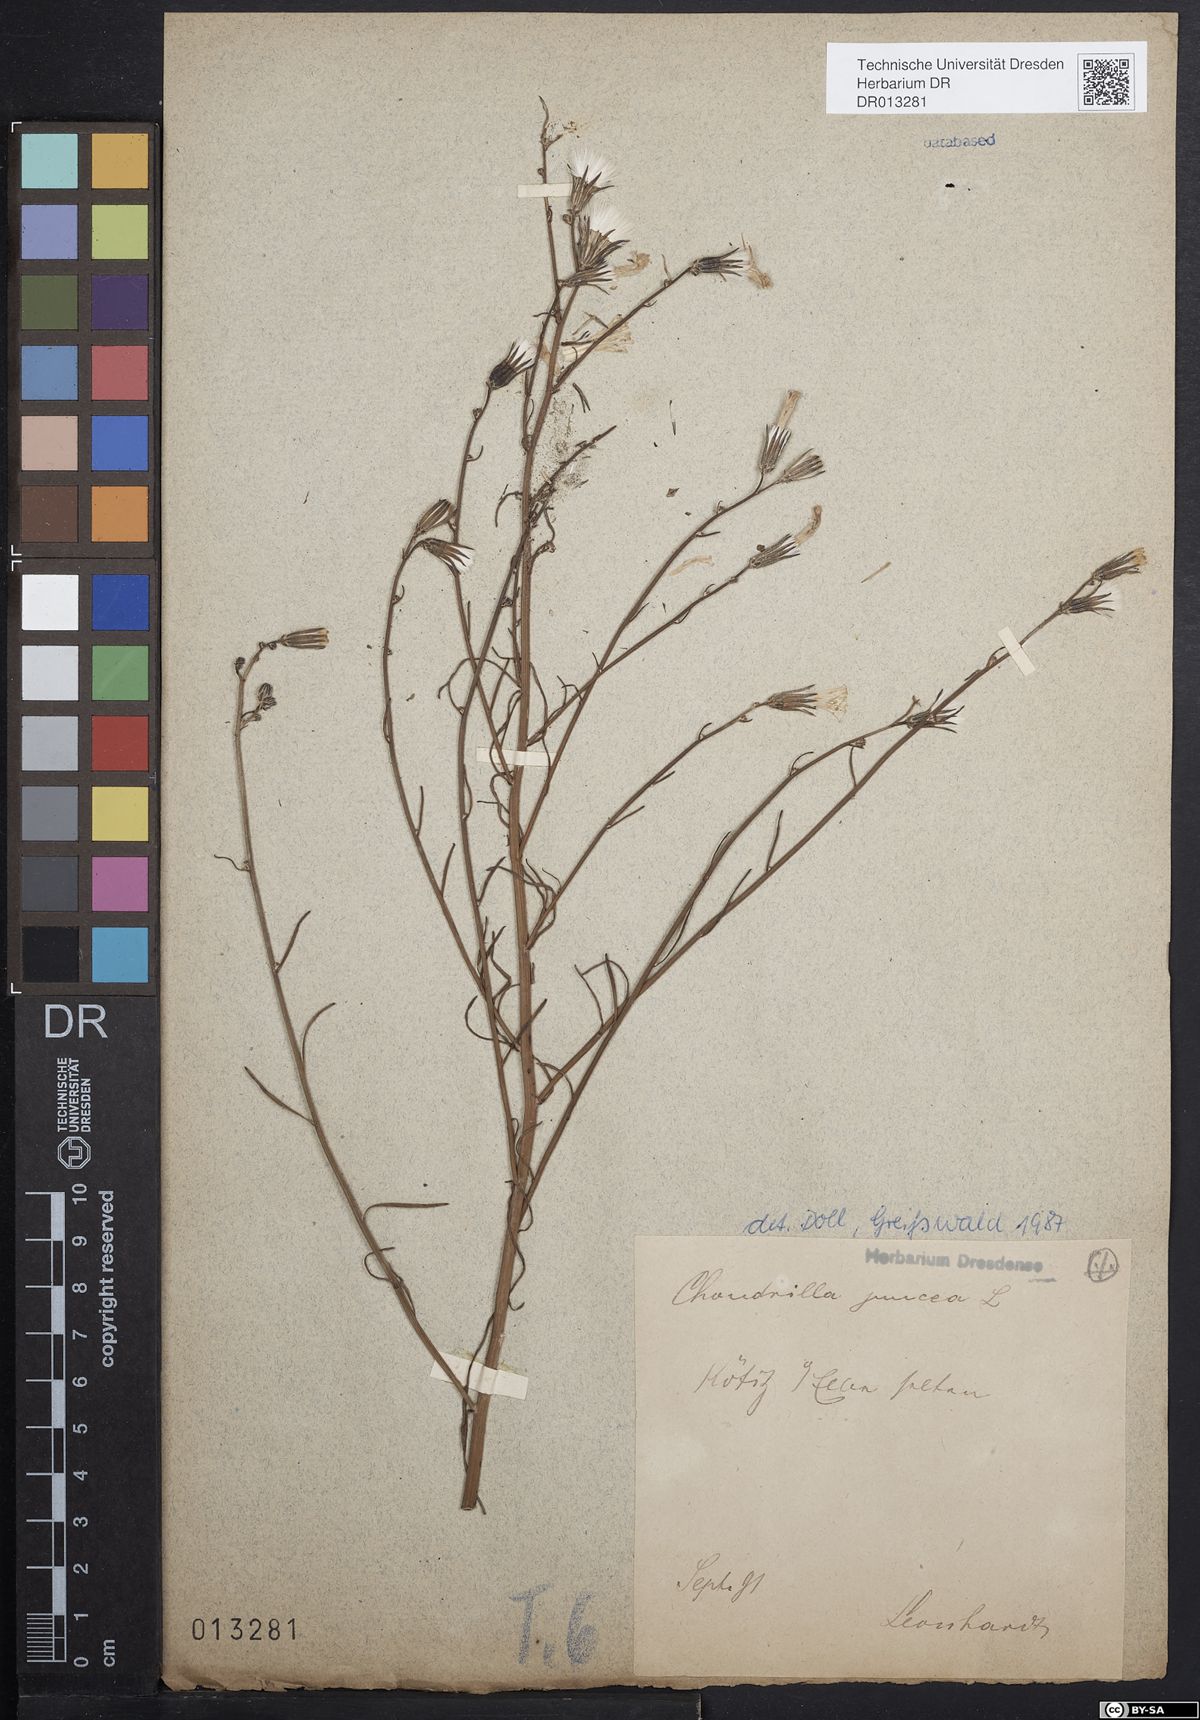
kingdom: Plantae
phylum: Tracheophyta
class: Magnoliopsida
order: Asterales
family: Asteraceae
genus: Chondrilla
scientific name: Chondrilla juncea
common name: Skeleton weed
